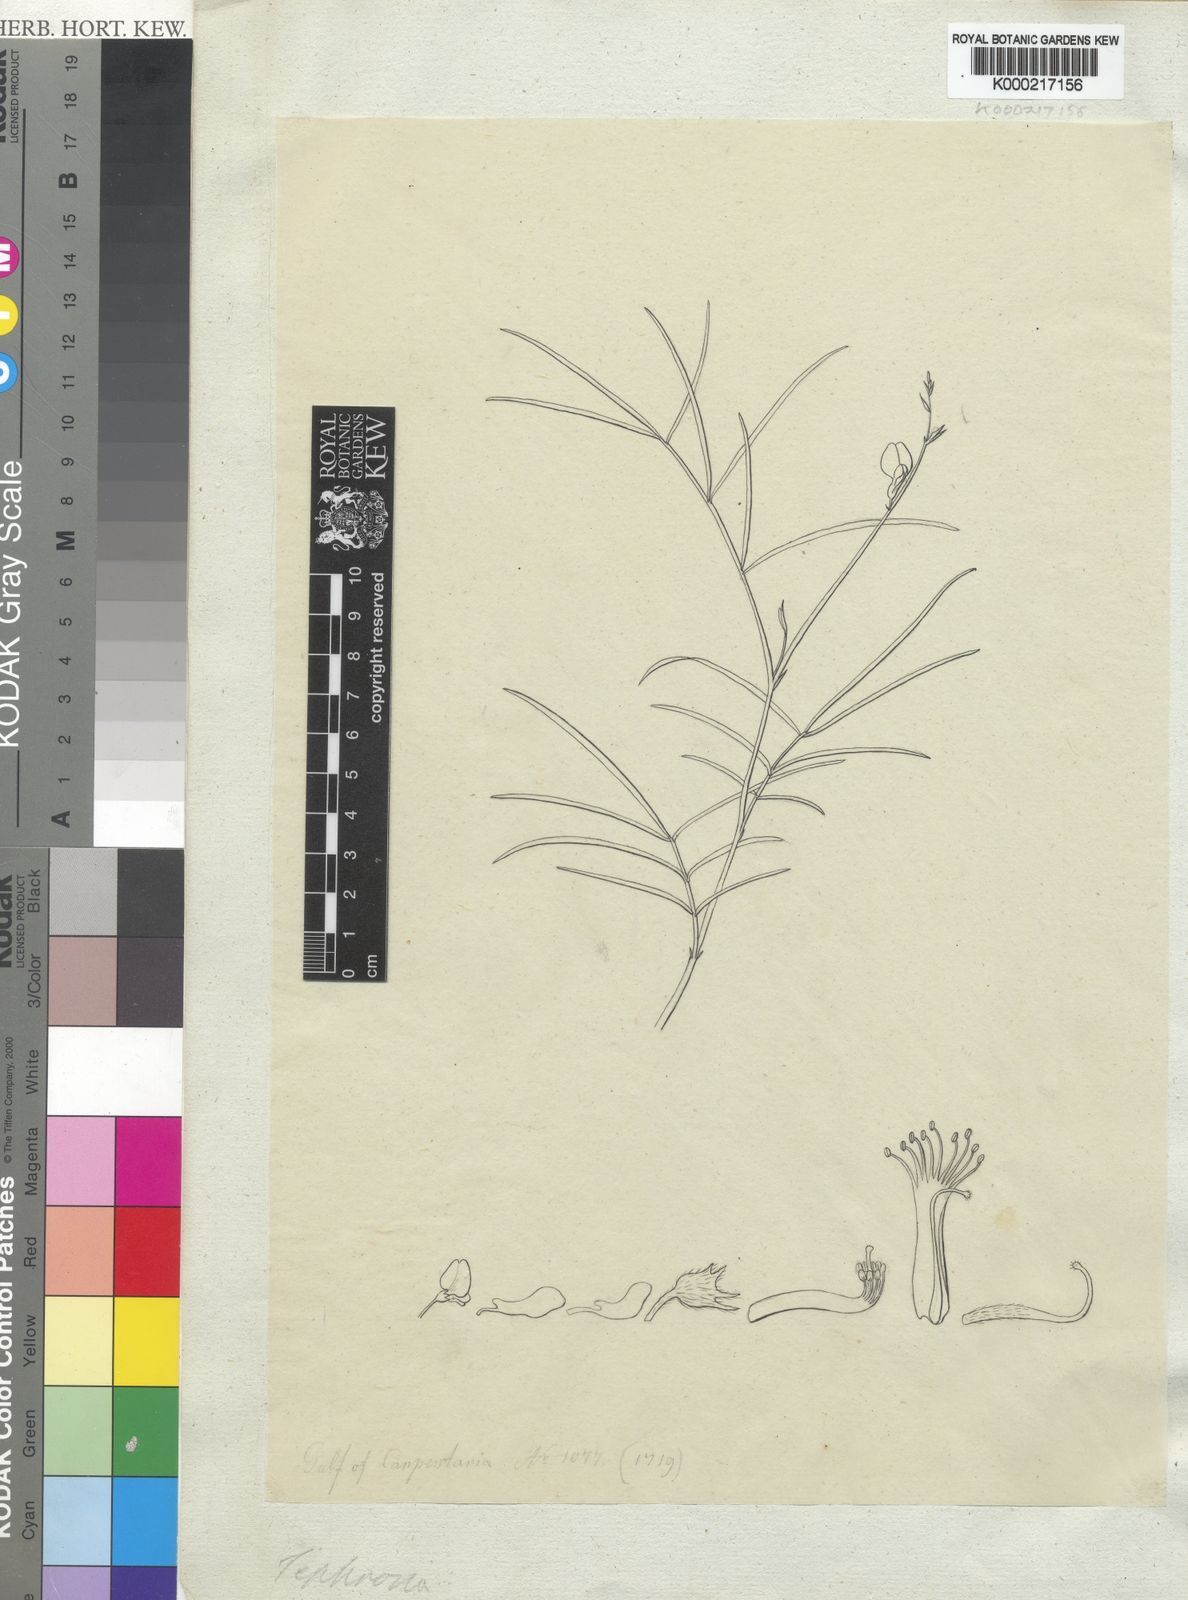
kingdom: Plantae
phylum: Tracheophyta
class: Magnoliopsida
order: Fabales
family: Fabaceae
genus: Tephrosia
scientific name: Tephrosia
